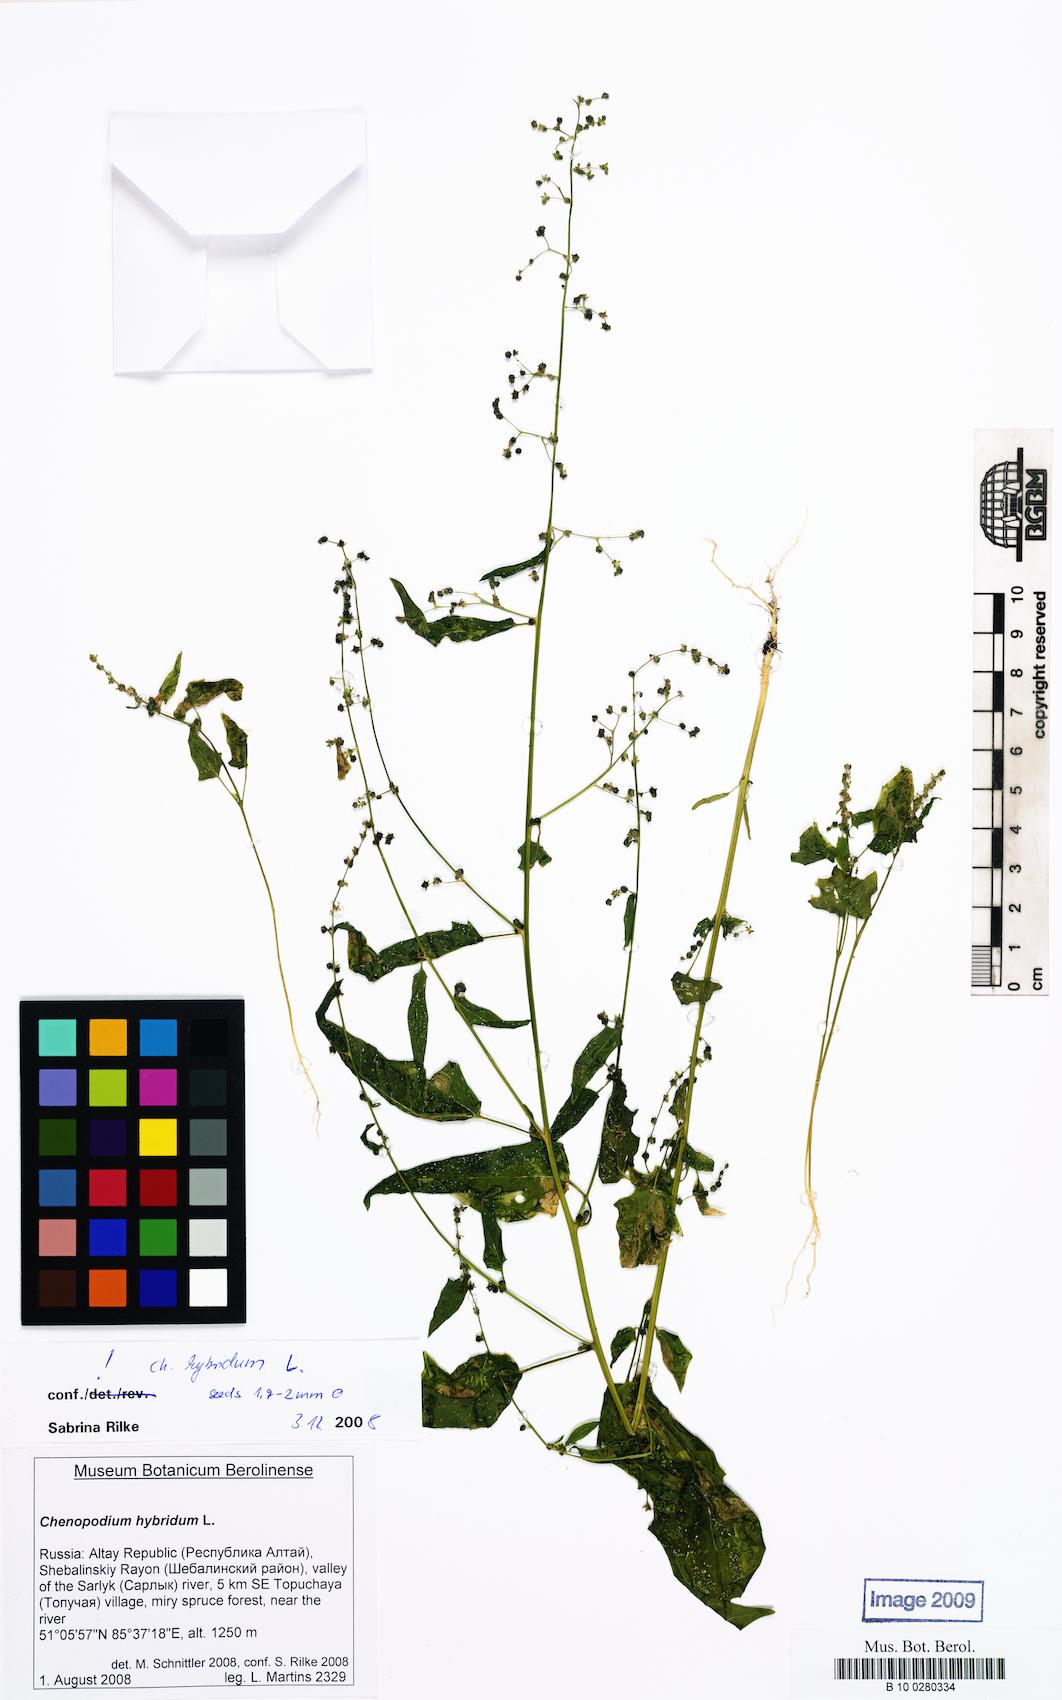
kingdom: Plantae
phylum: Tracheophyta
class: Magnoliopsida
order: Caryophyllales
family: Amaranthaceae
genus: Chenopodiastrum
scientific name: Chenopodiastrum hybridum
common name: Mapleleaf goosefoot
